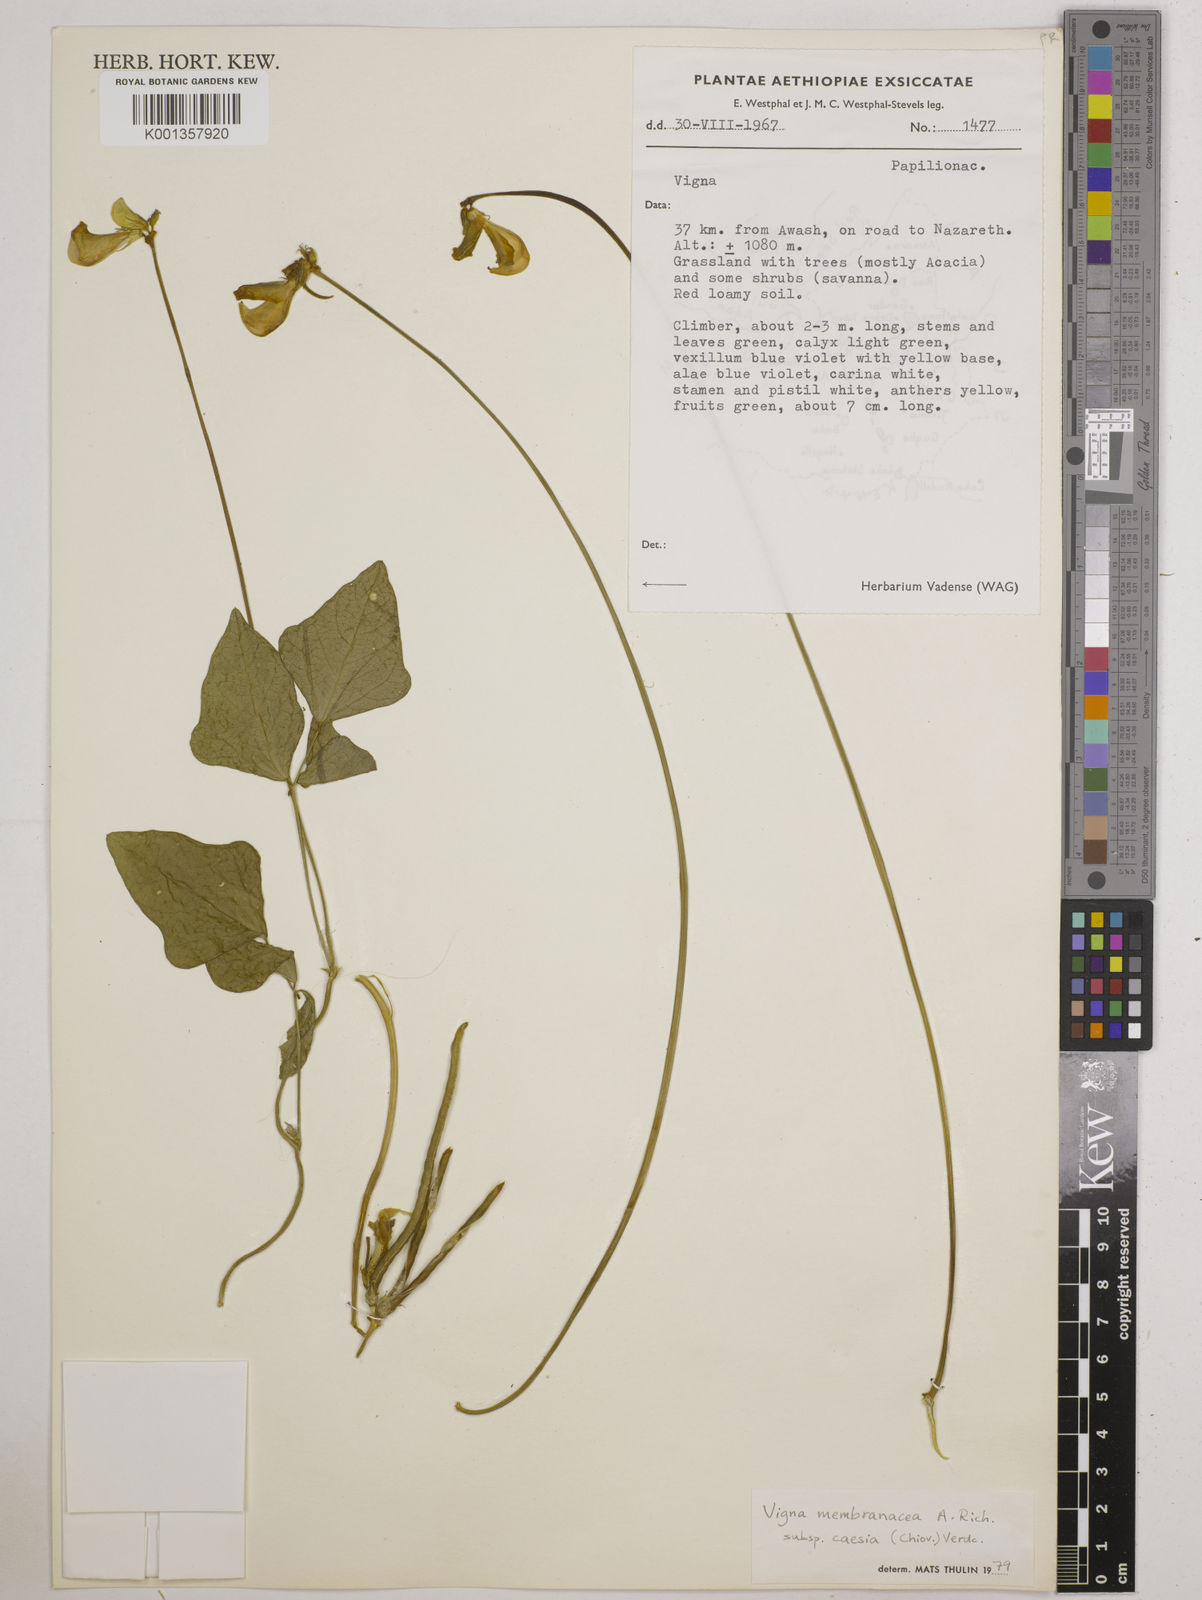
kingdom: Plantae
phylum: Tracheophyta
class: Magnoliopsida
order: Fabales
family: Fabaceae
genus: Vigna
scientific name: Vigna
